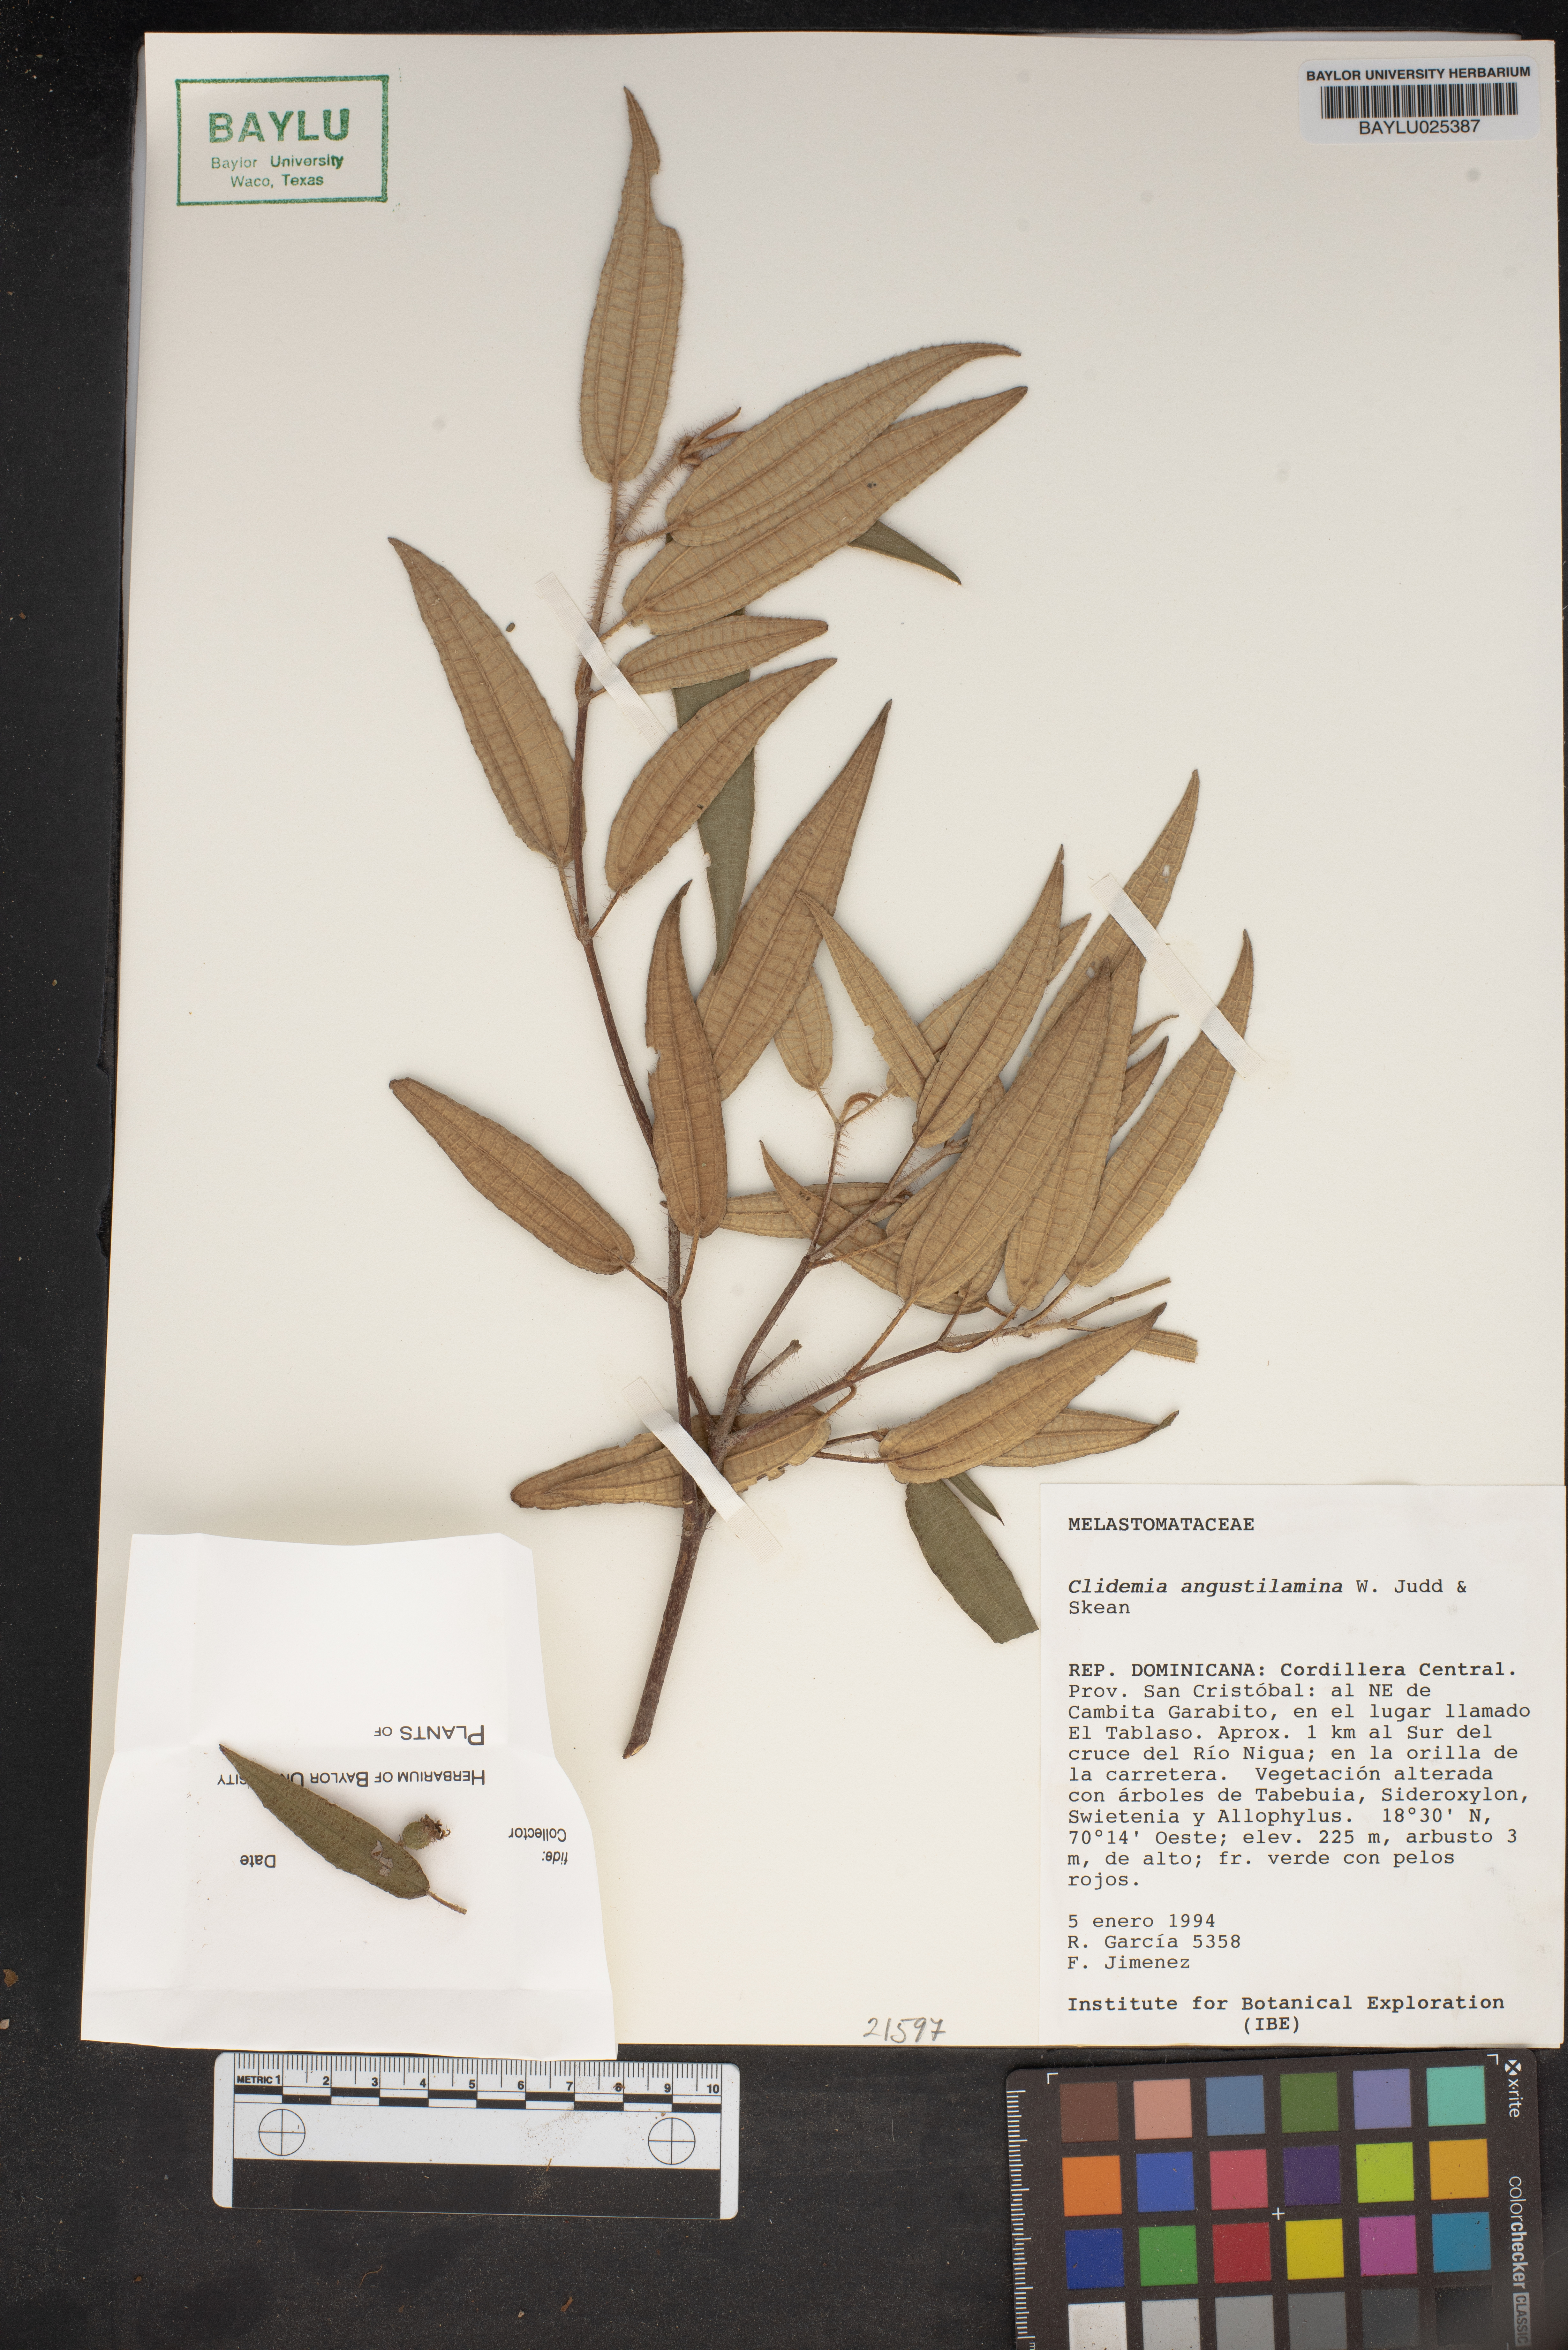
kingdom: Plantae
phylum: Tracheophyta
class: Magnoliopsida
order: Myrtales
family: Melastomataceae
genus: Miconia
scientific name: Miconia angustilamina
